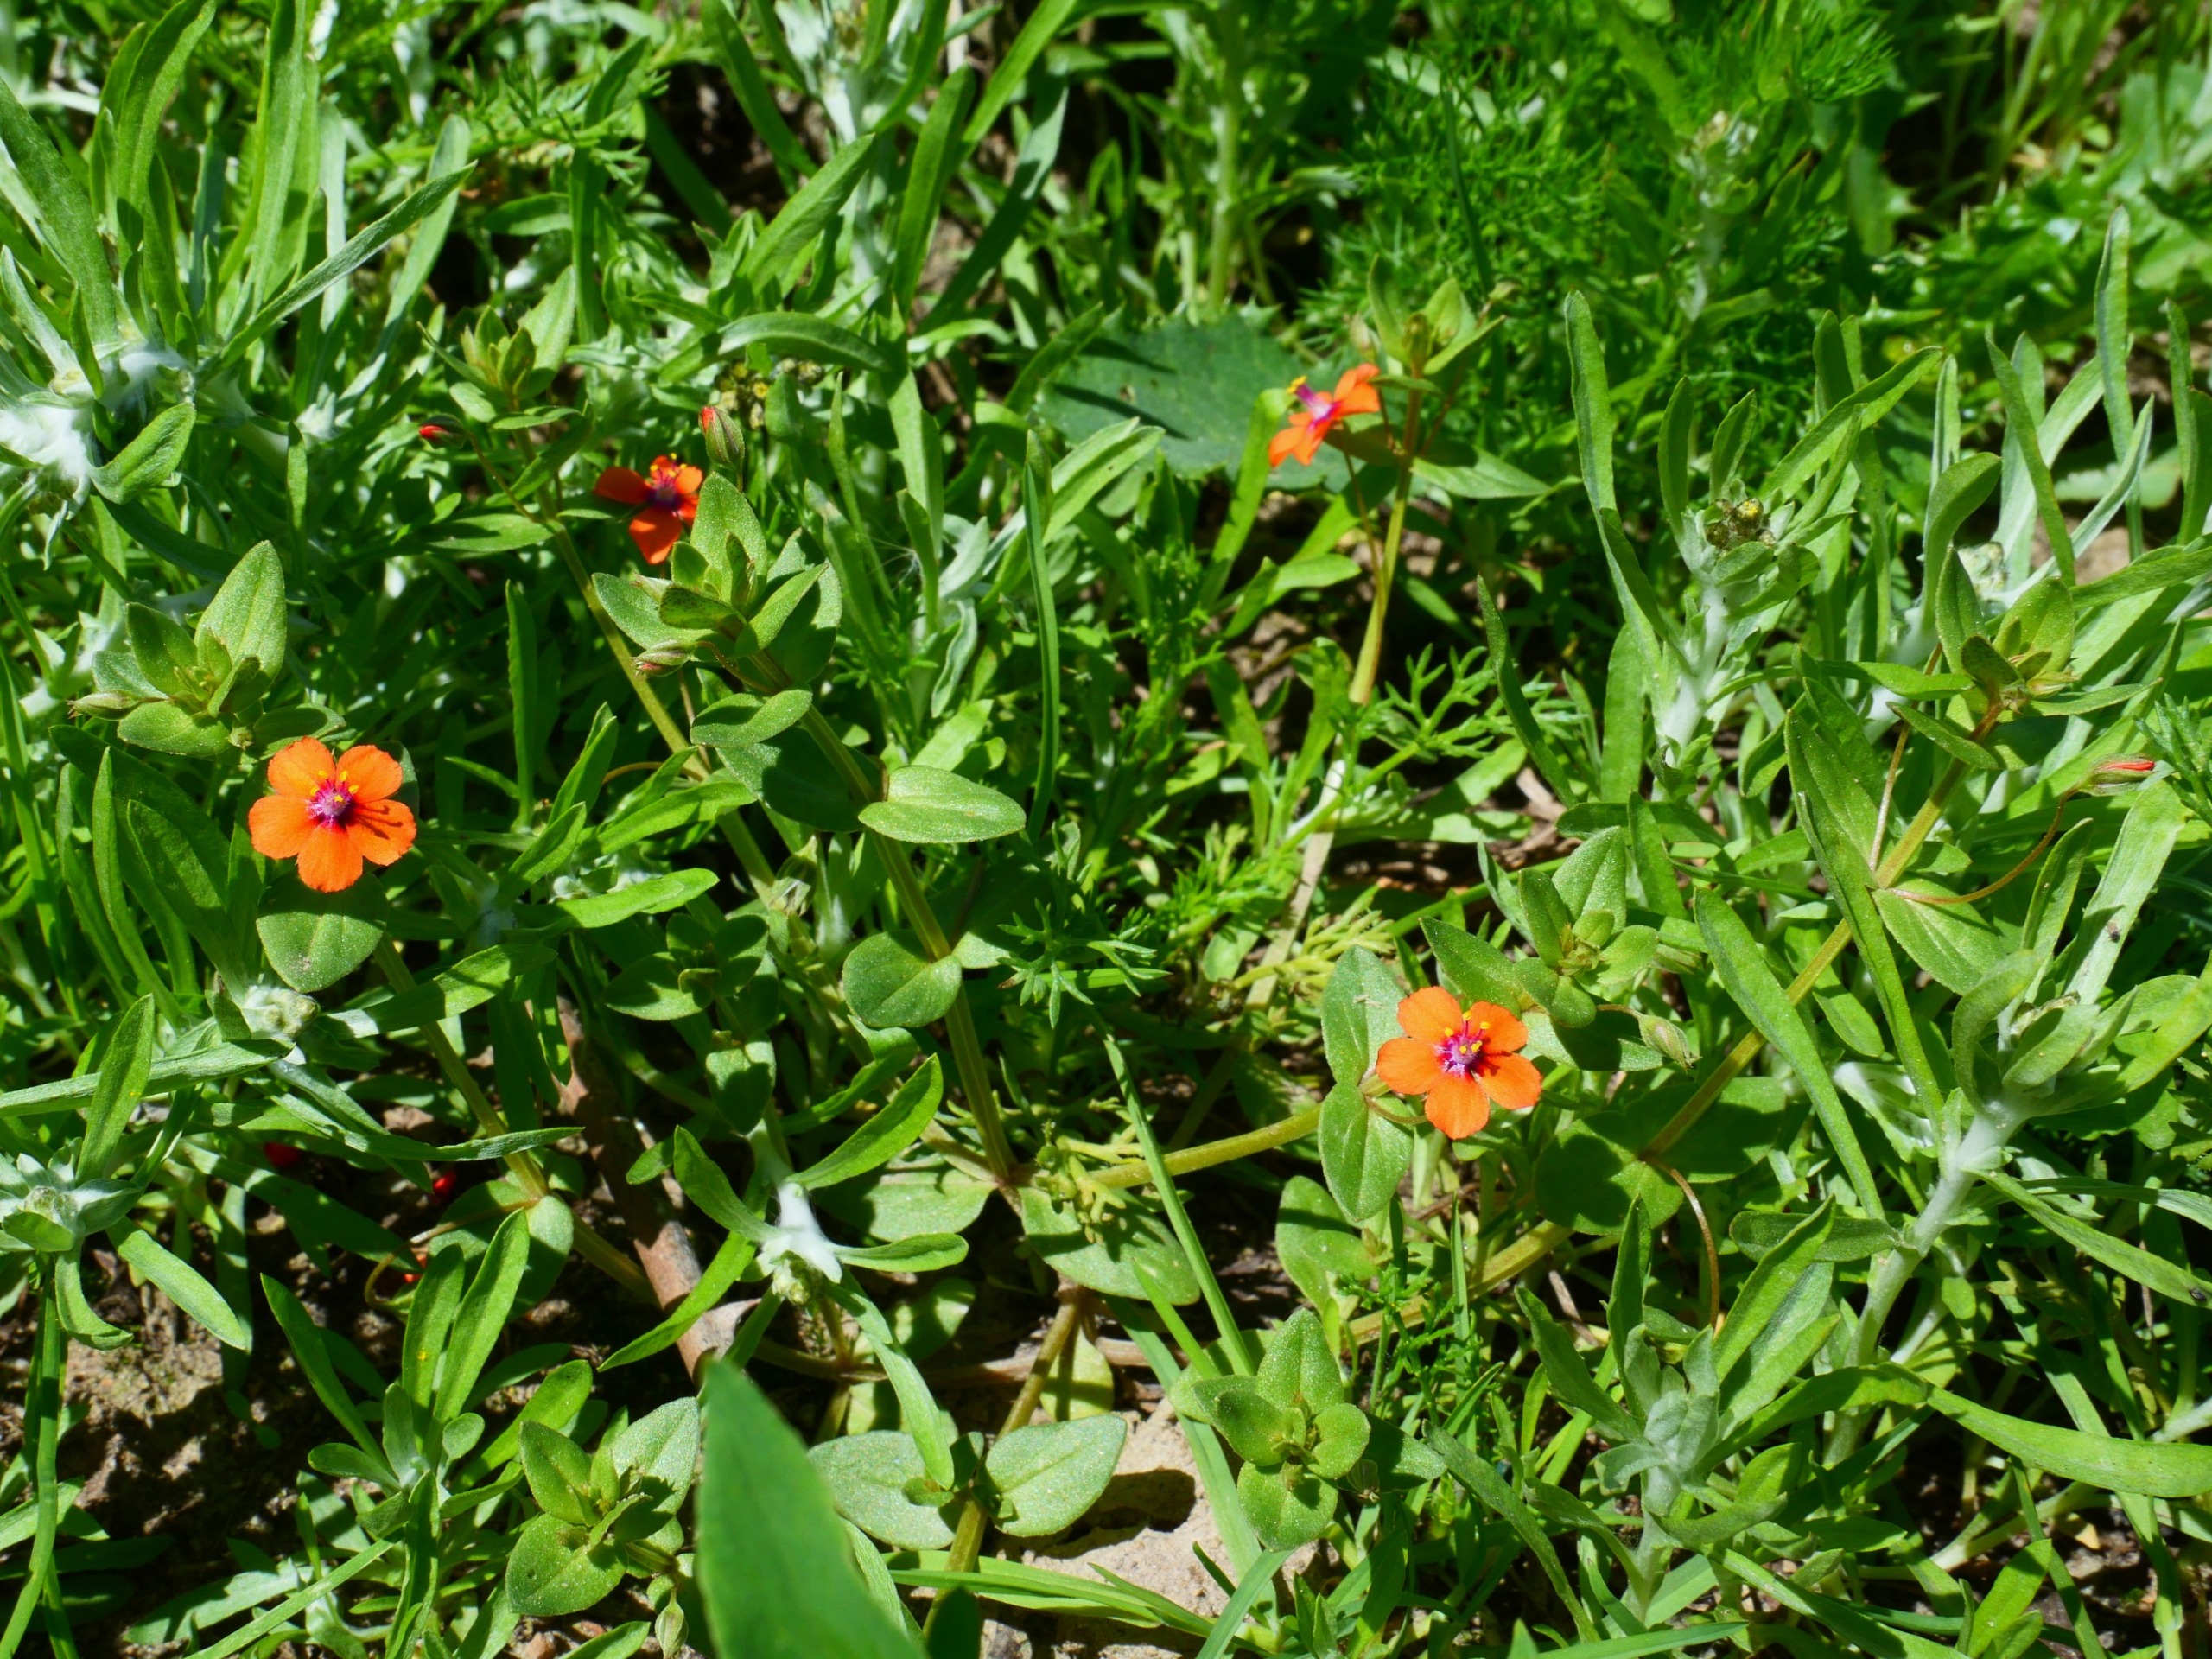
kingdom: Plantae
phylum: Tracheophyta
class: Magnoliopsida
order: Ericales
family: Primulaceae
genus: Lysimachia
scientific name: Lysimachia arvensis
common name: Rød arve
